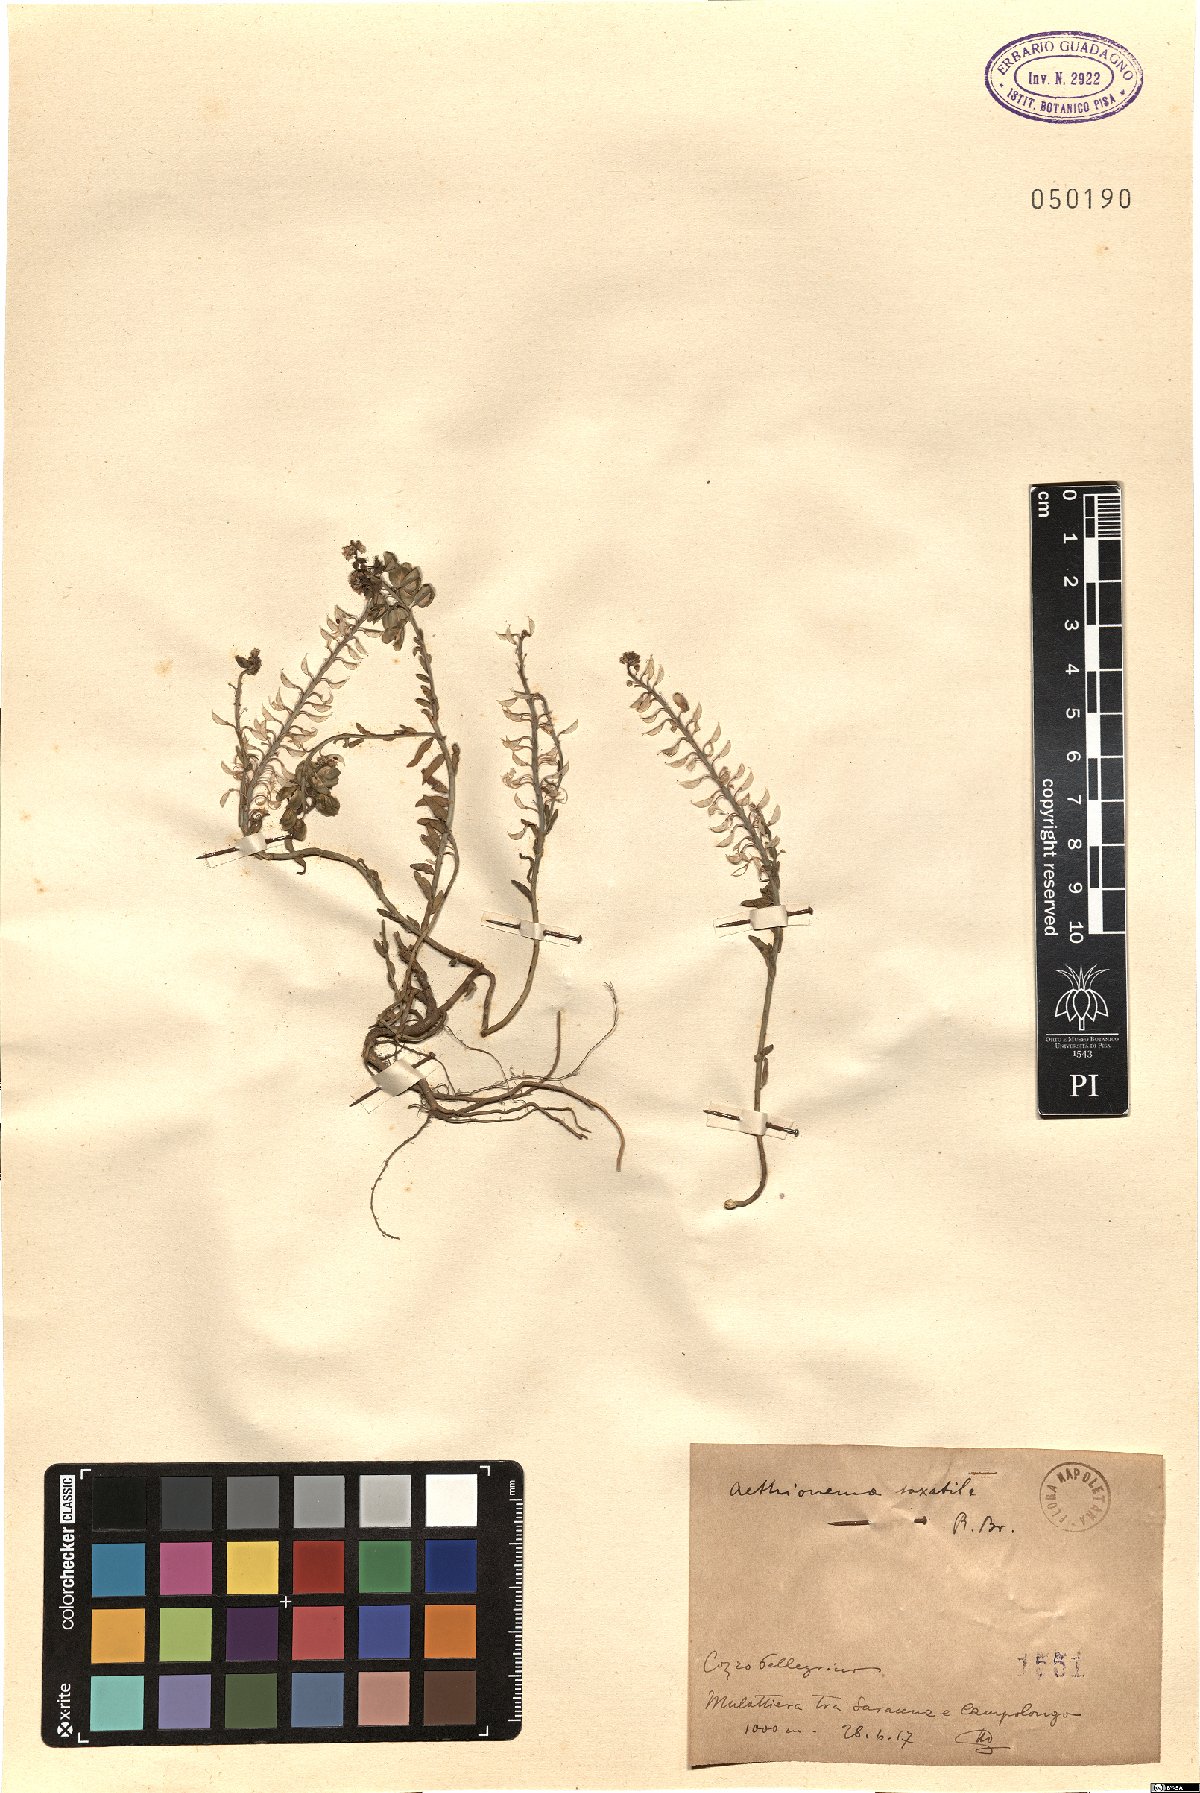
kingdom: Plantae
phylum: Tracheophyta
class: Magnoliopsida
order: Brassicales
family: Brassicaceae
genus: Aethionema
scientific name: Aethionema saxatile
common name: Burnt candytuft
